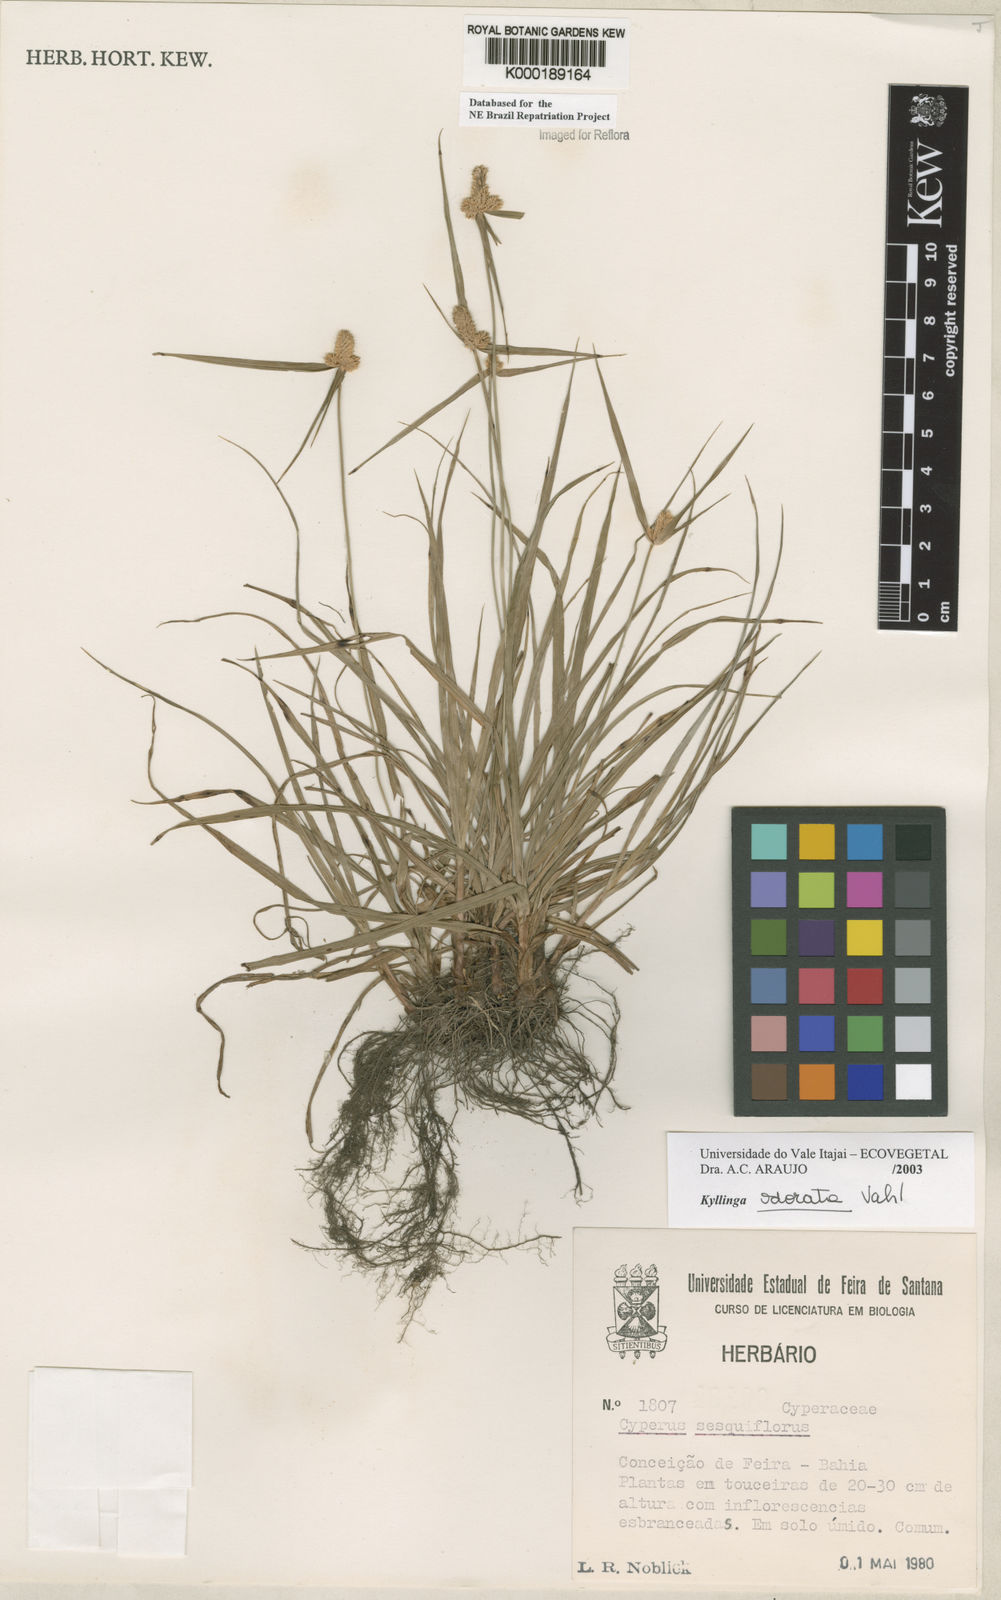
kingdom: Plantae
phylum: Tracheophyta
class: Liliopsida
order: Poales
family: Cyperaceae
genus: Cyperus
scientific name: Cyperus sesquiflorus
